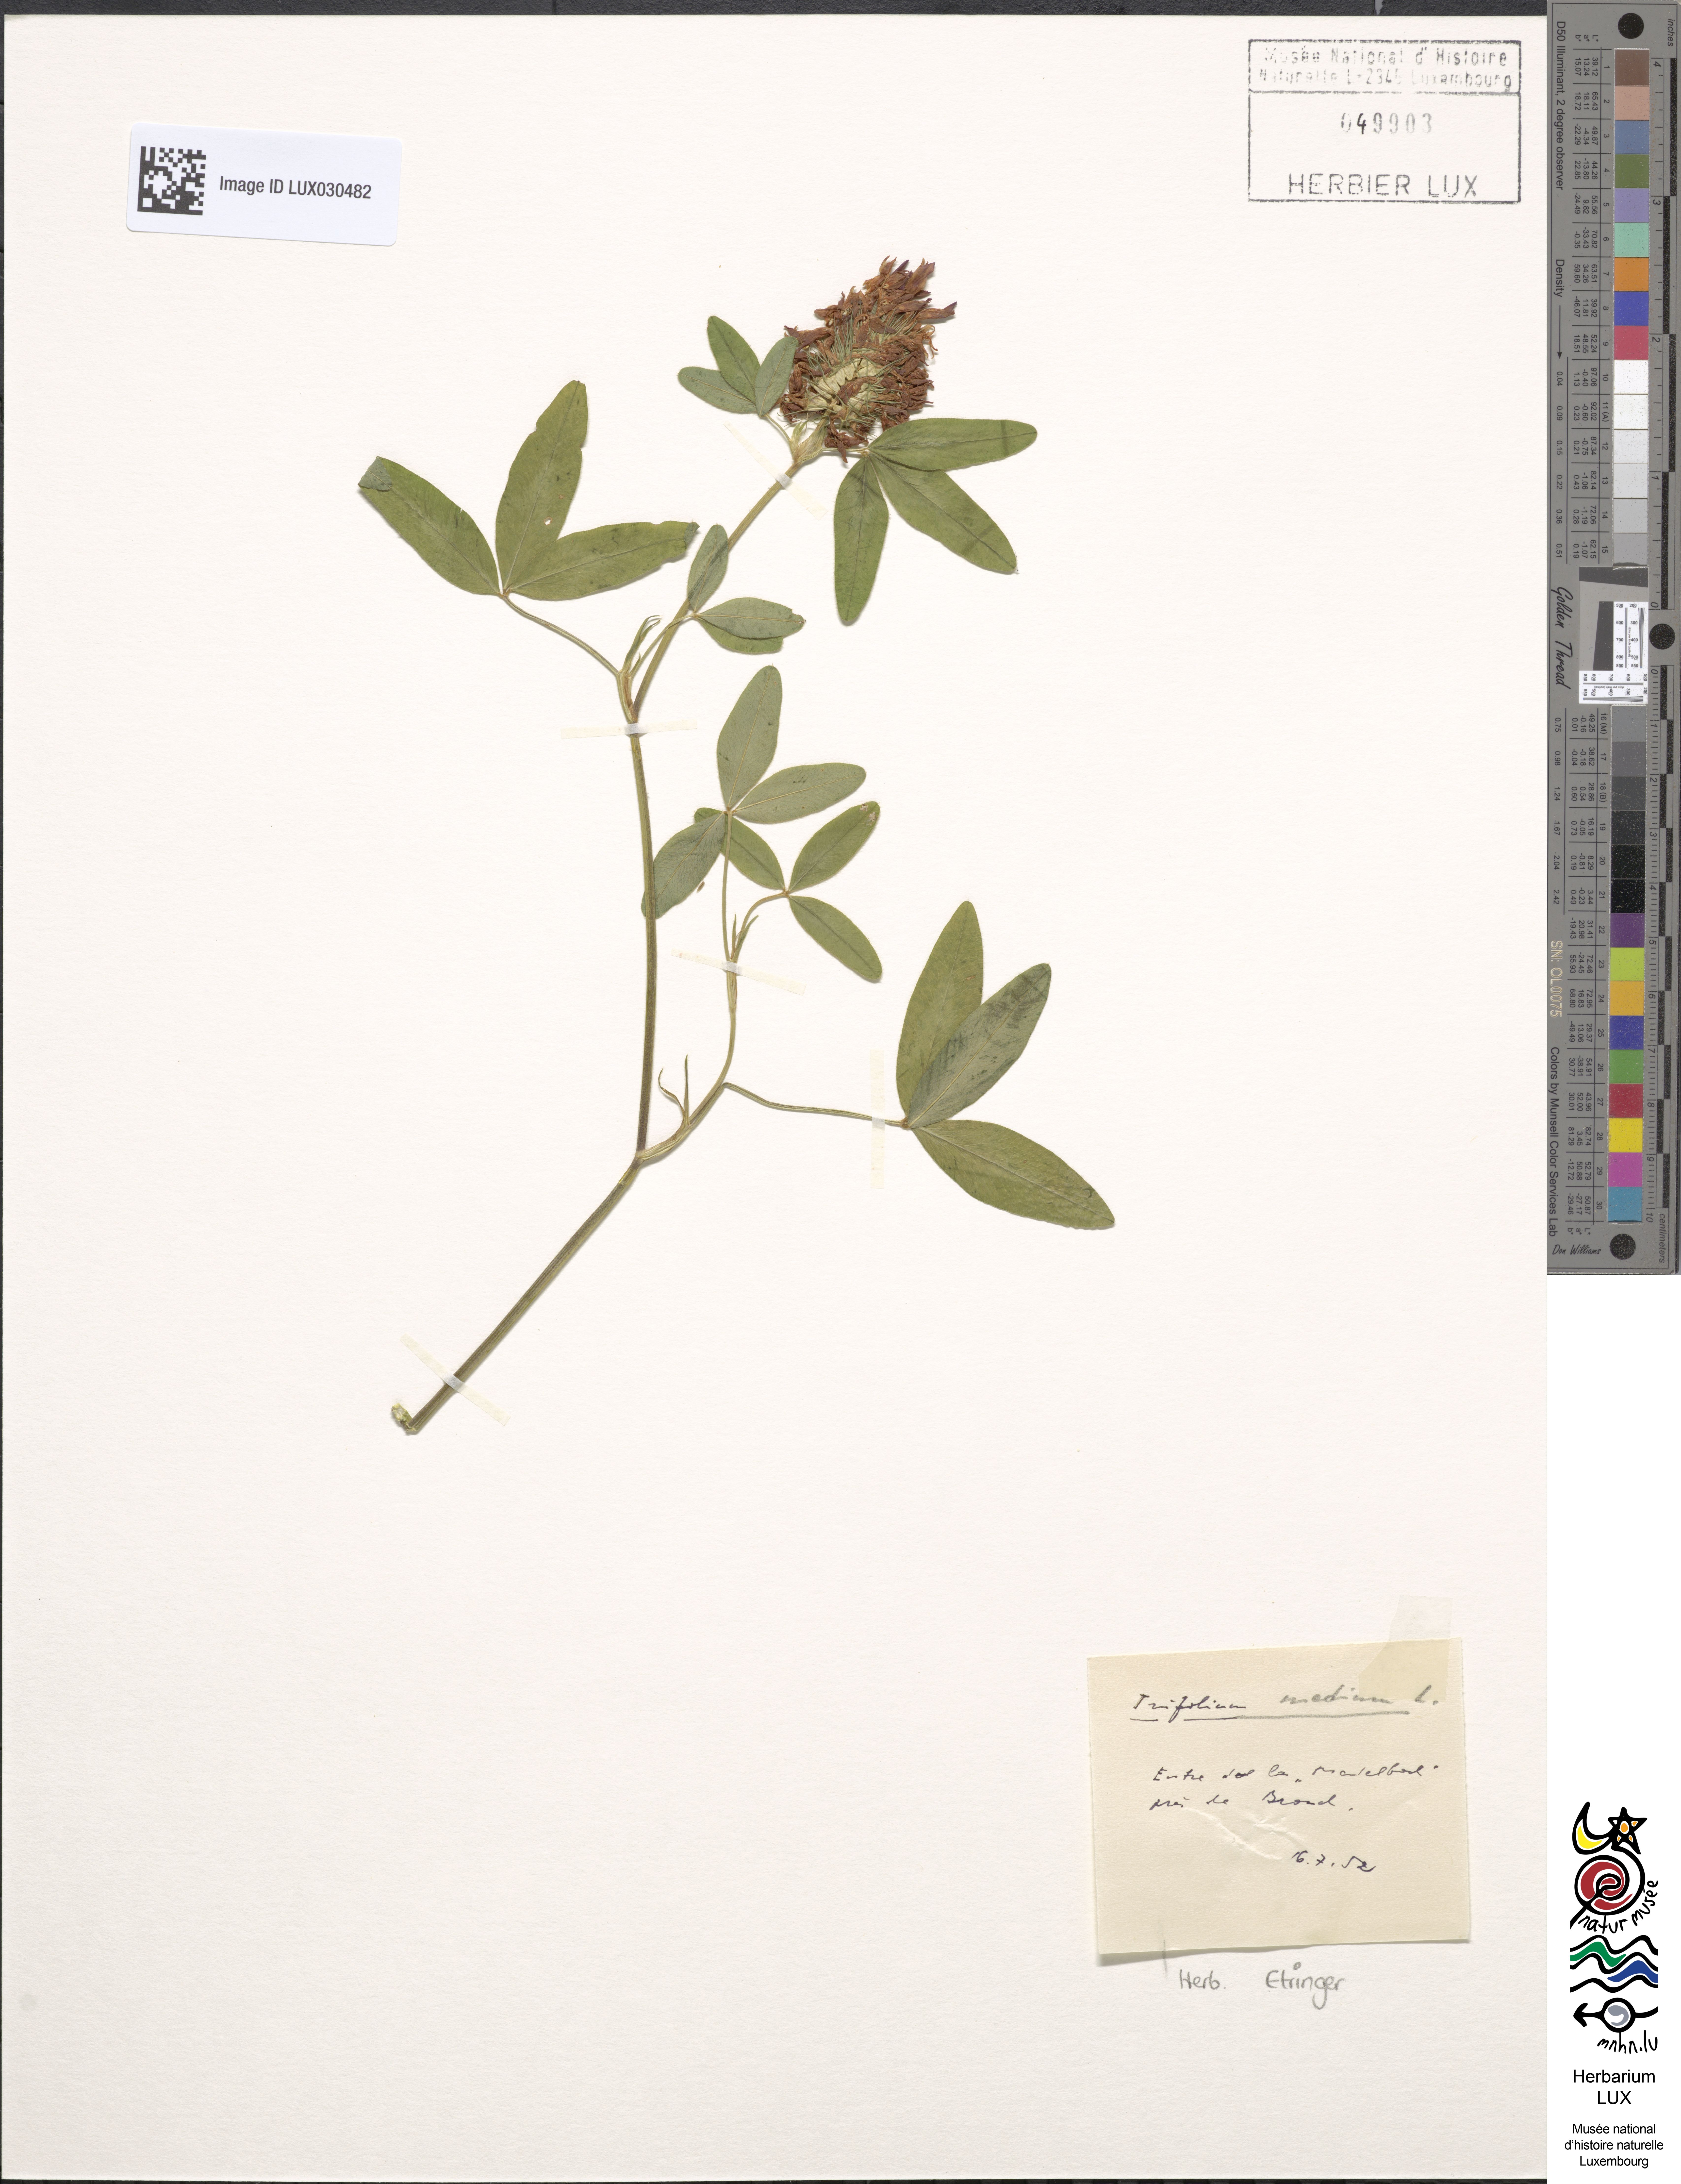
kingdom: Plantae
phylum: Tracheophyta
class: Magnoliopsida
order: Fabales
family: Fabaceae
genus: Trifolium
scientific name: Trifolium medium
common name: Zigzag clover
